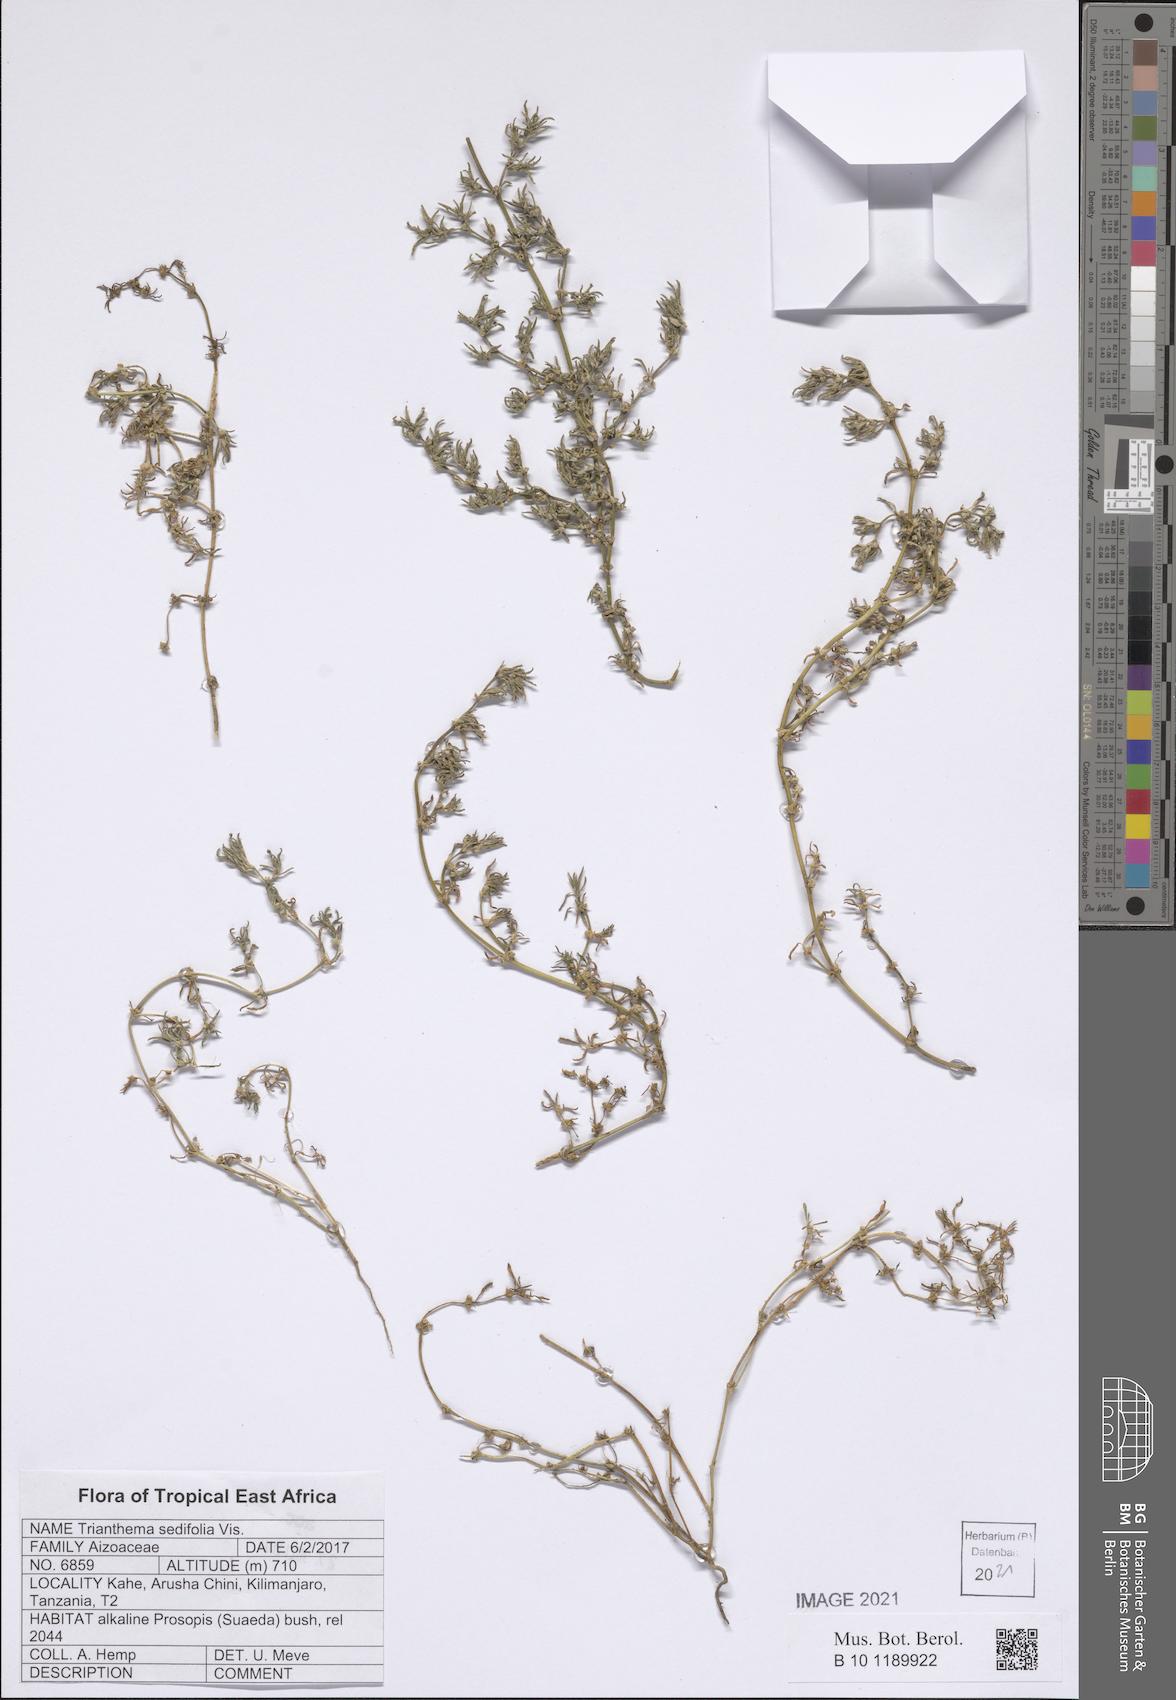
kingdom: Plantae
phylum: Tracheophyta
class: Magnoliopsida
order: Caryophyllales
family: Aizoaceae
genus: Trianthema
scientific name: Trianthema triquetrum
